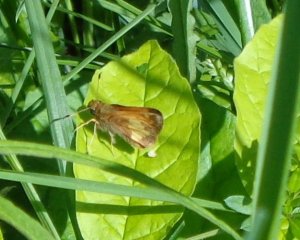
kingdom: Animalia
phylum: Arthropoda
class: Insecta
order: Lepidoptera
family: Hesperiidae
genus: Lon
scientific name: Lon hobomok
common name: Hobomok Skipper
